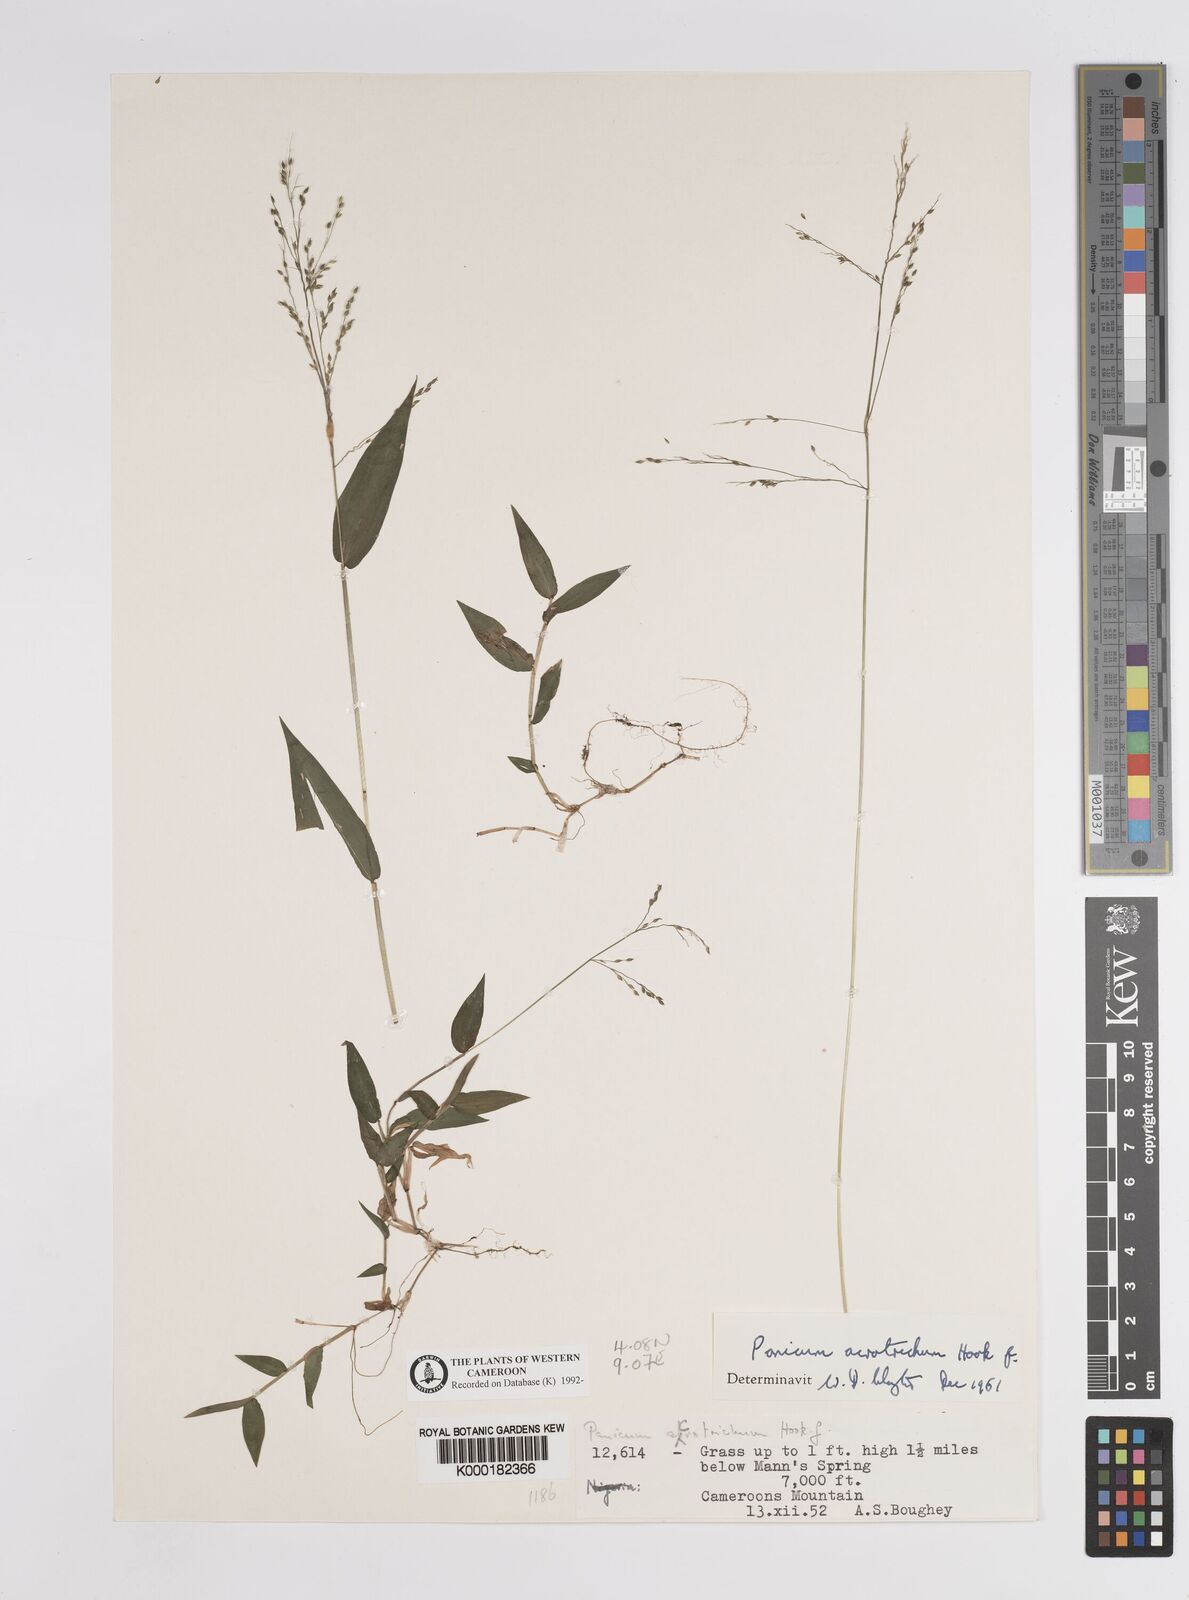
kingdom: Plantae
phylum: Tracheophyta
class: Liliopsida
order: Poales
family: Poaceae
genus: Panicum
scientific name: Panicum acrotrichum
